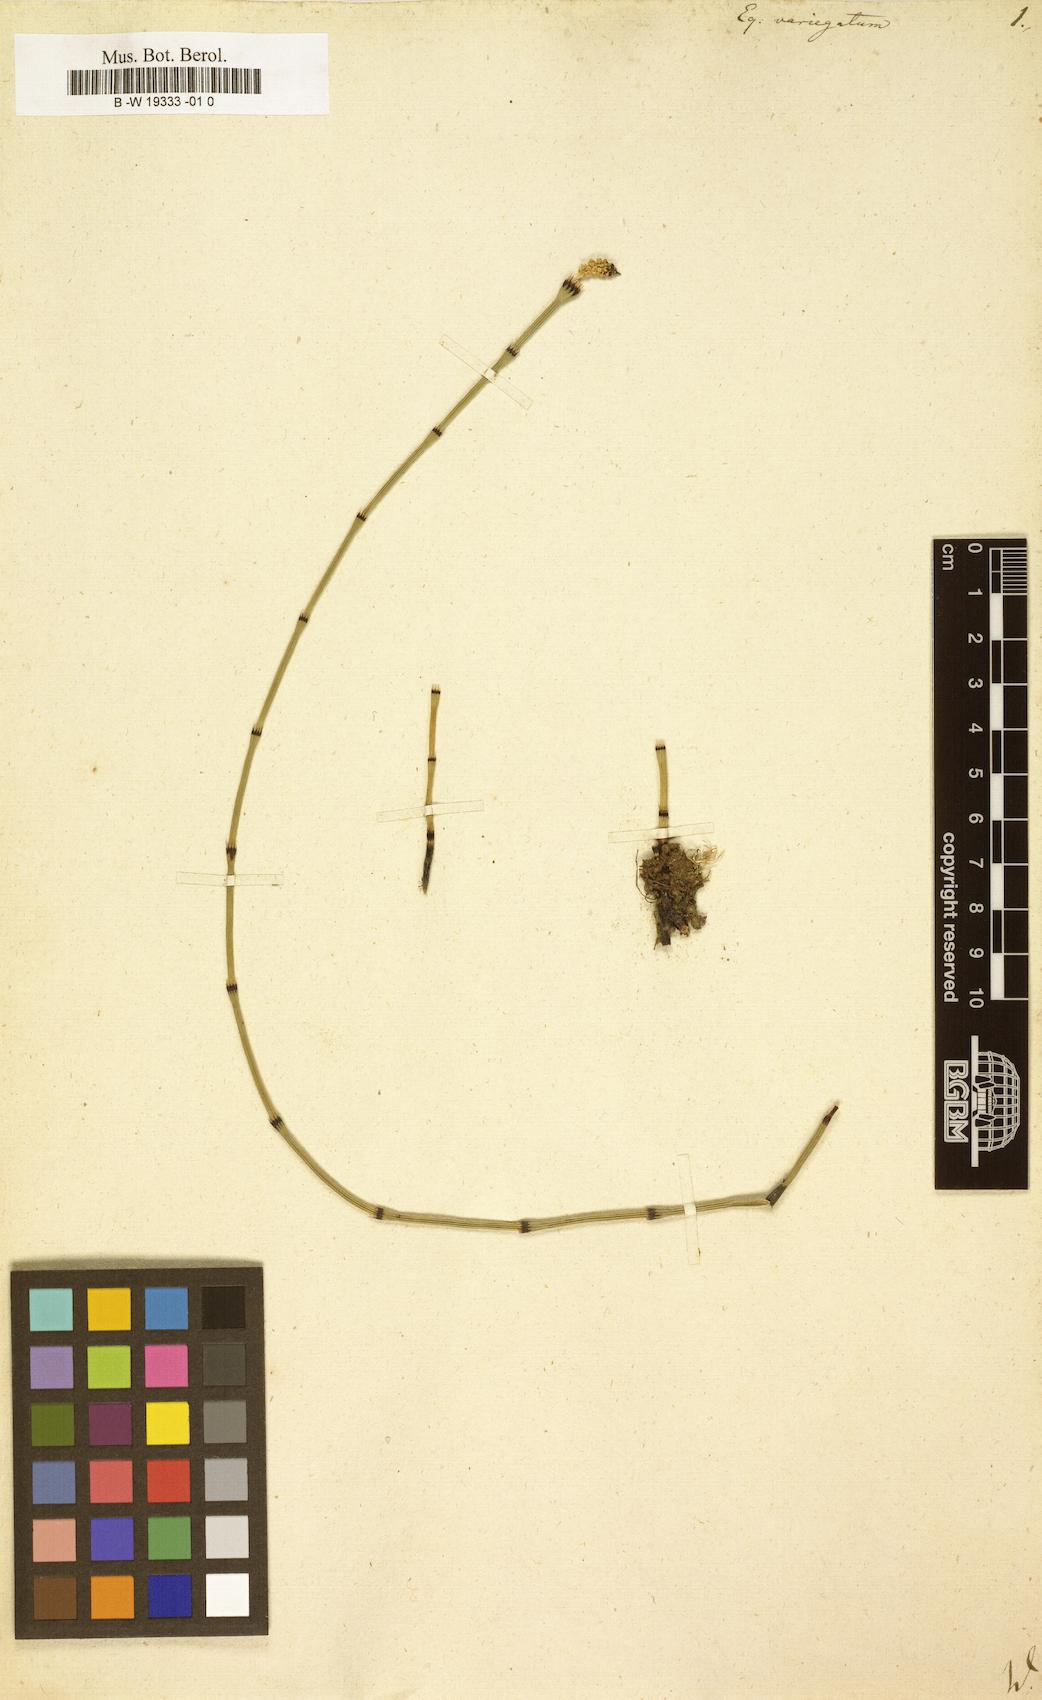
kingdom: Plantae
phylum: Tracheophyta
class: Polypodiopsida
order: Equisetales
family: Equisetaceae
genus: Equisetum
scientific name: Equisetum variegatum
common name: Variegated horsetail
